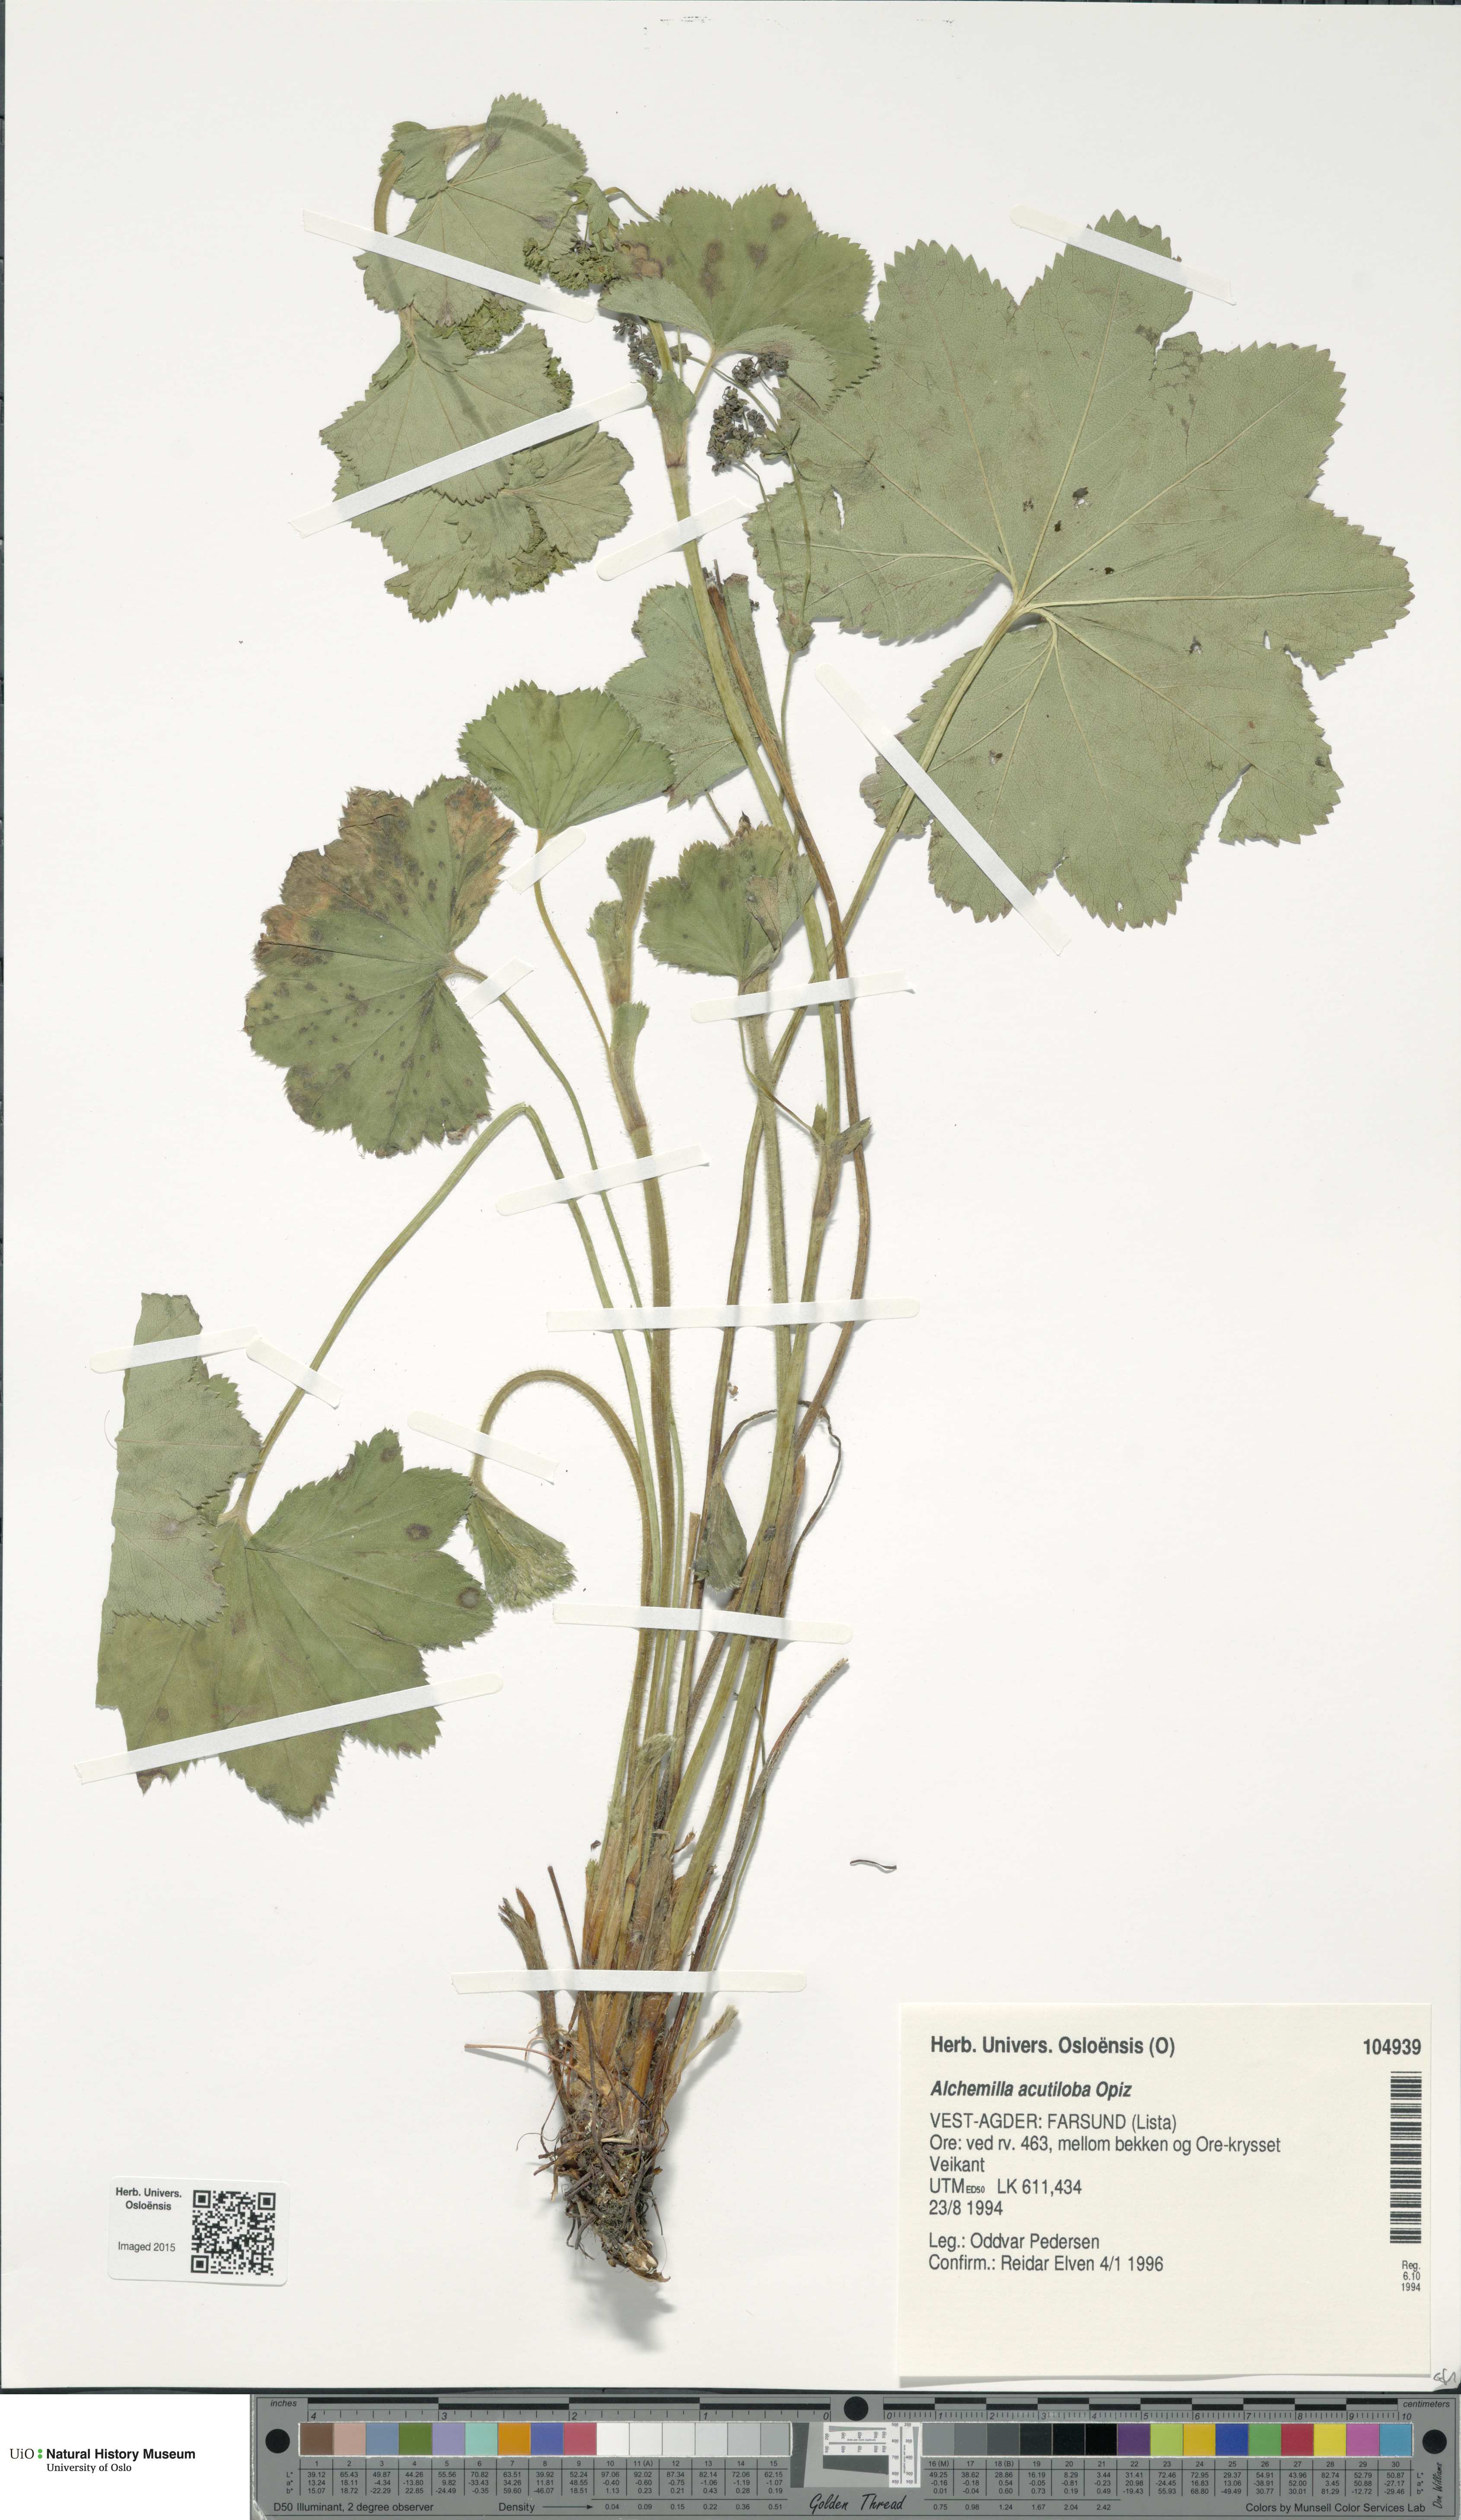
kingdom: Plantae
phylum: Tracheophyta
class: Magnoliopsida
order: Rosales
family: Rosaceae
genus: Alchemilla
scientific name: Alchemilla vulgaris
